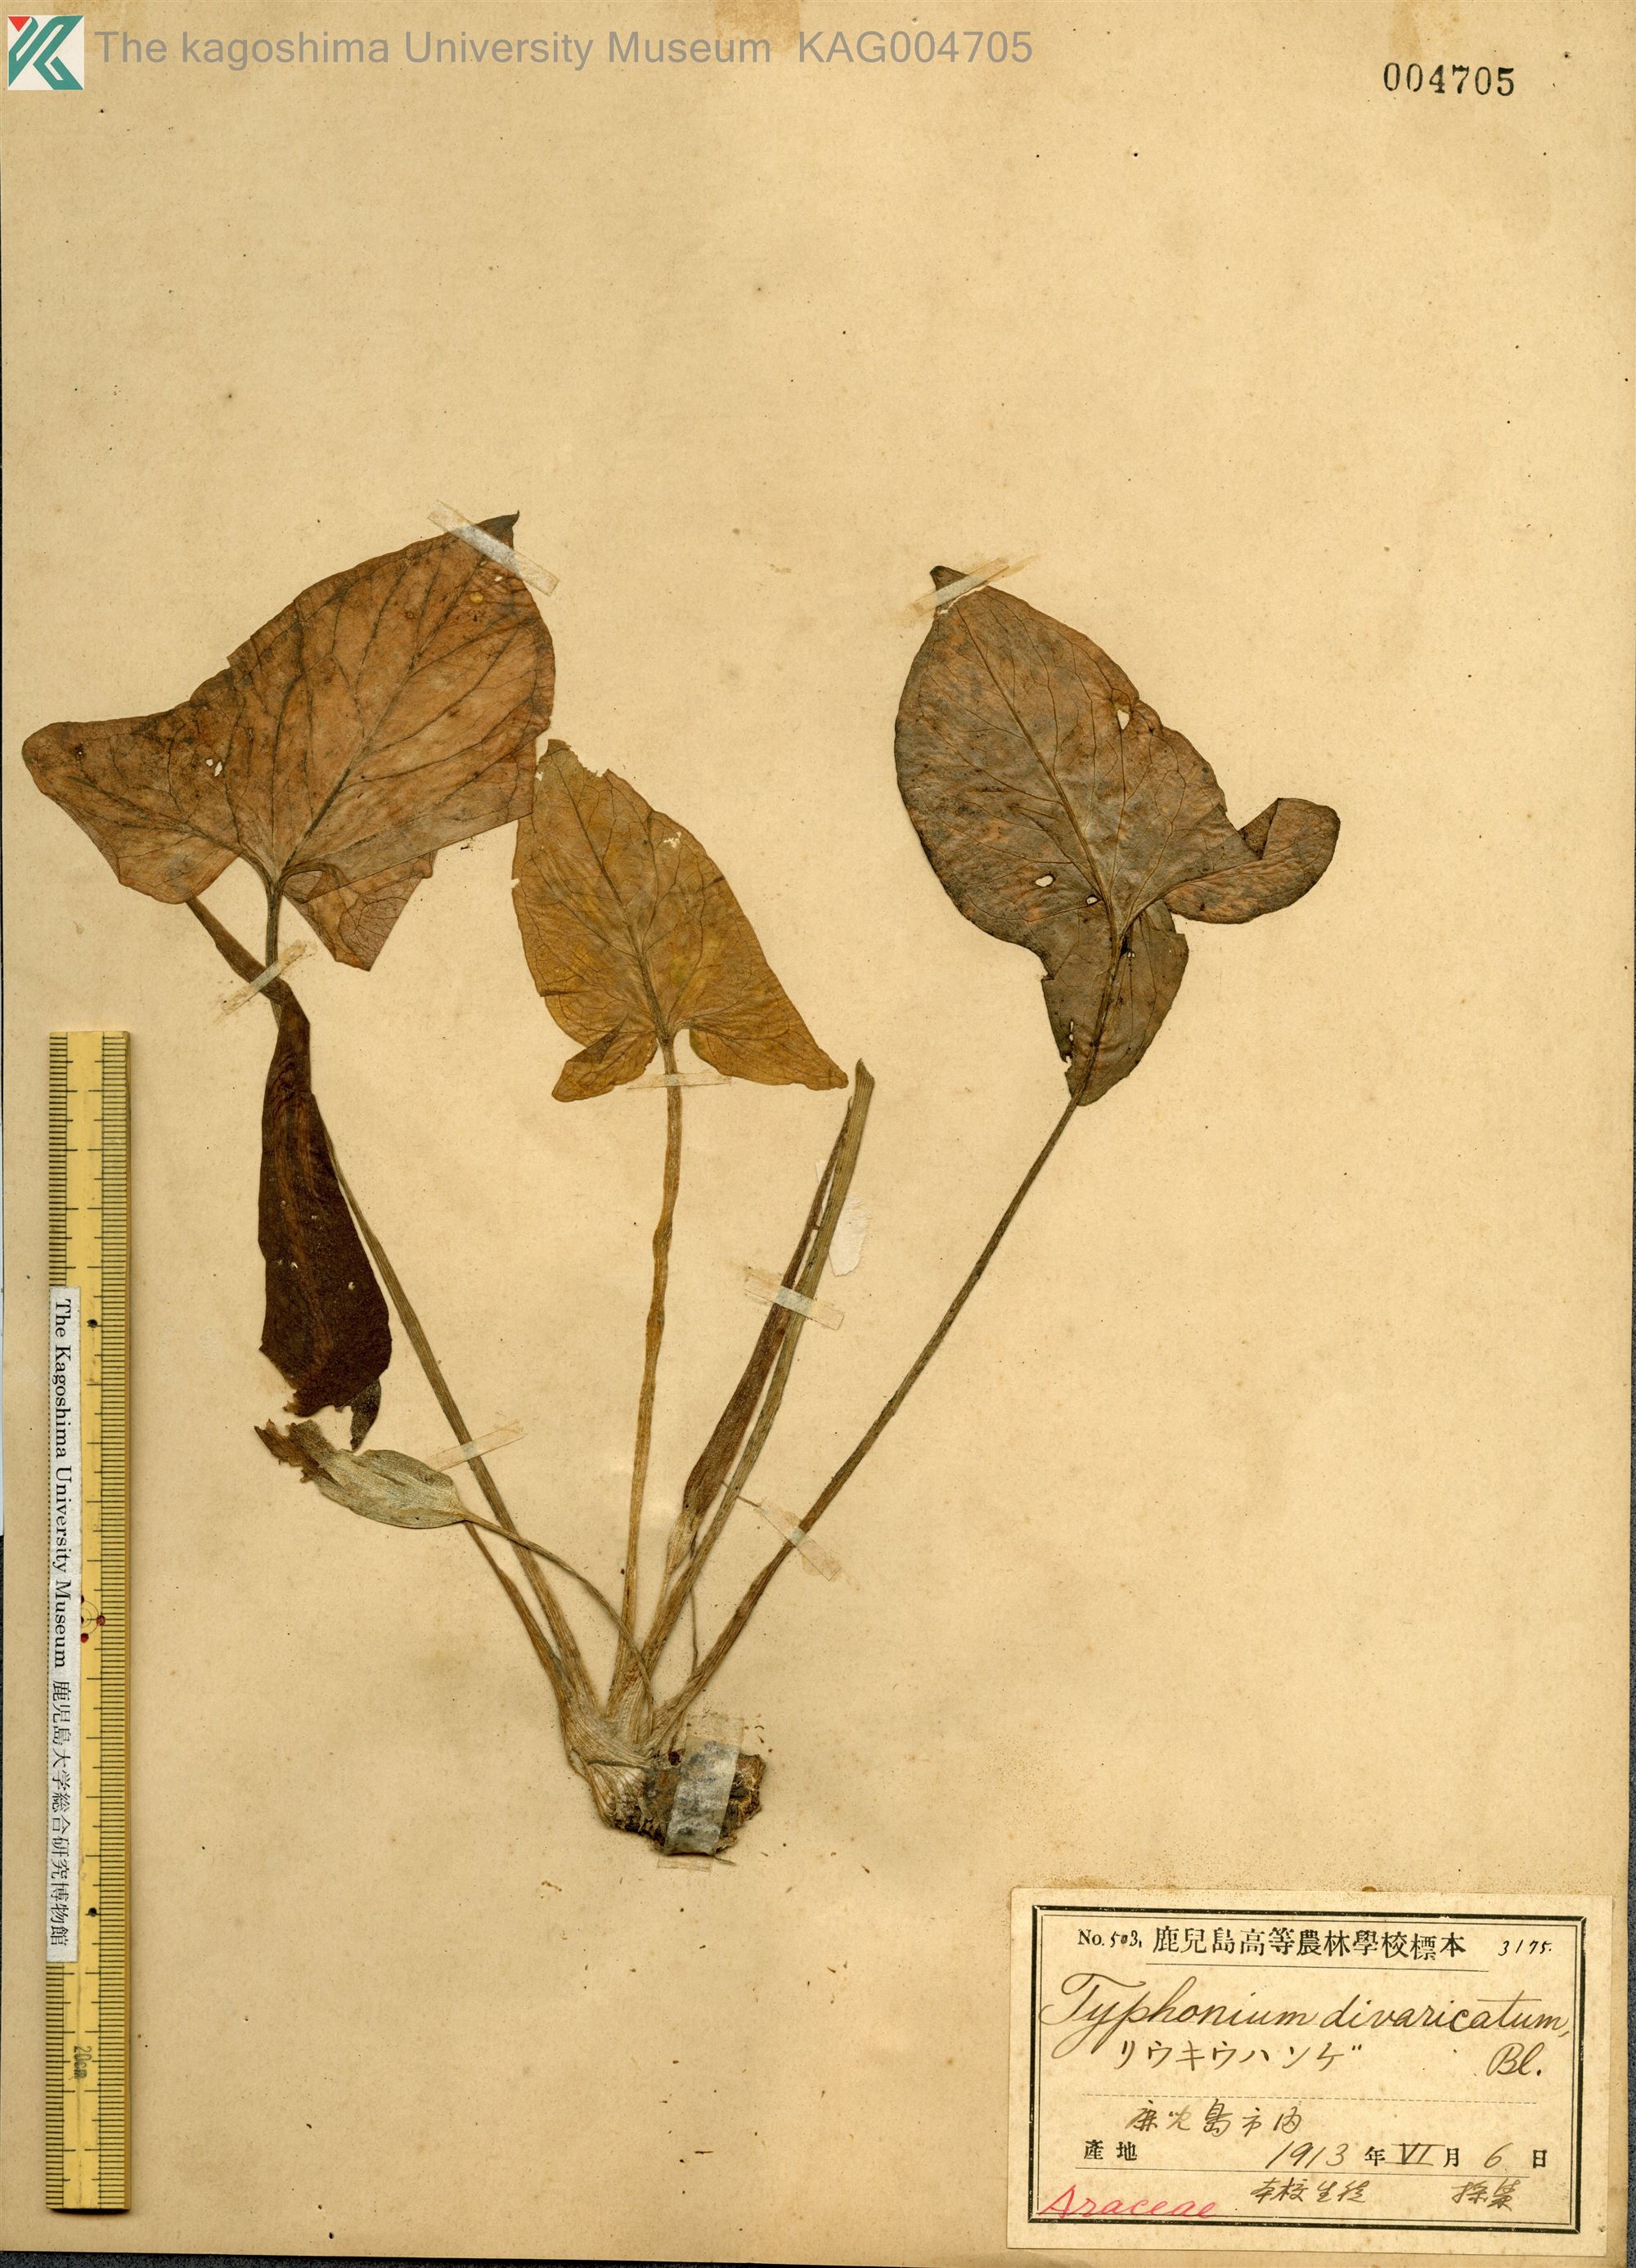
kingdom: Plantae
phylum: Tracheophyta
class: Liliopsida
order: Alismatales
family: Araceae
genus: Typhonium
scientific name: Typhonium
